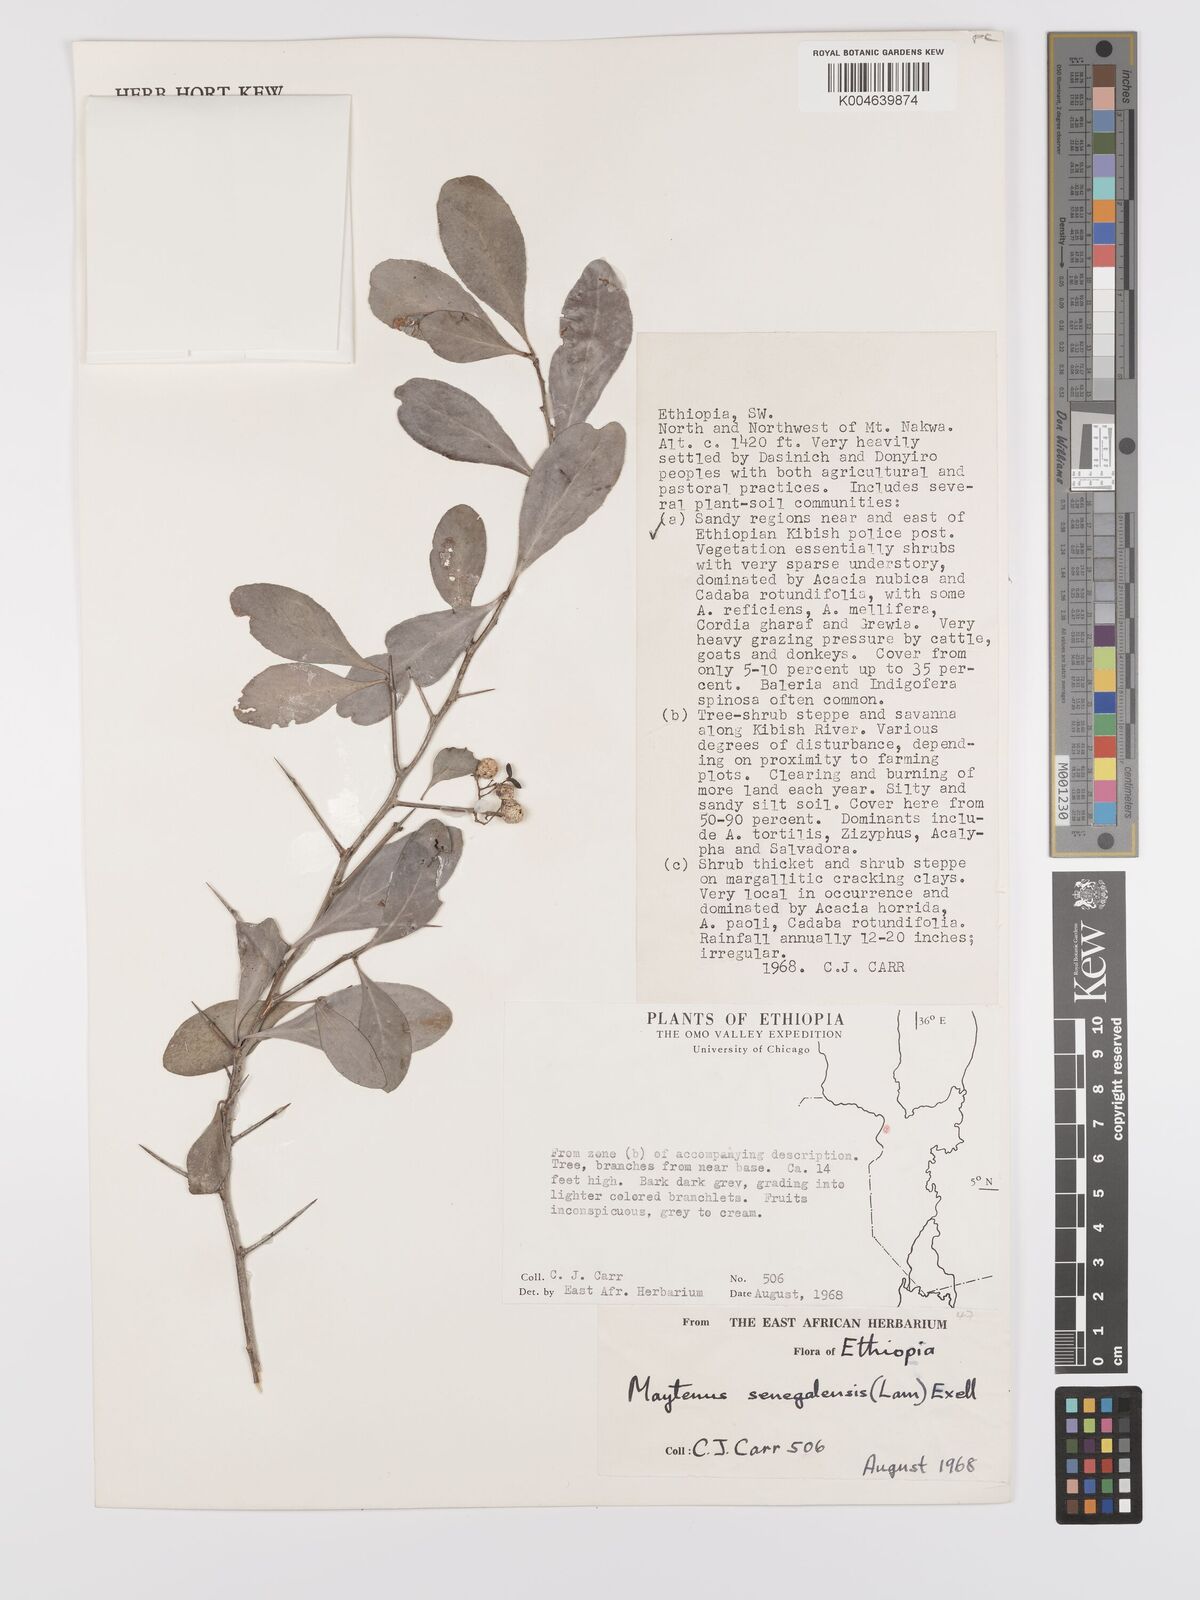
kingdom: Plantae
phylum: Tracheophyta
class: Magnoliopsida
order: Celastrales
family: Celastraceae
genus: Gymnosporia
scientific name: Gymnosporia senegalensis
